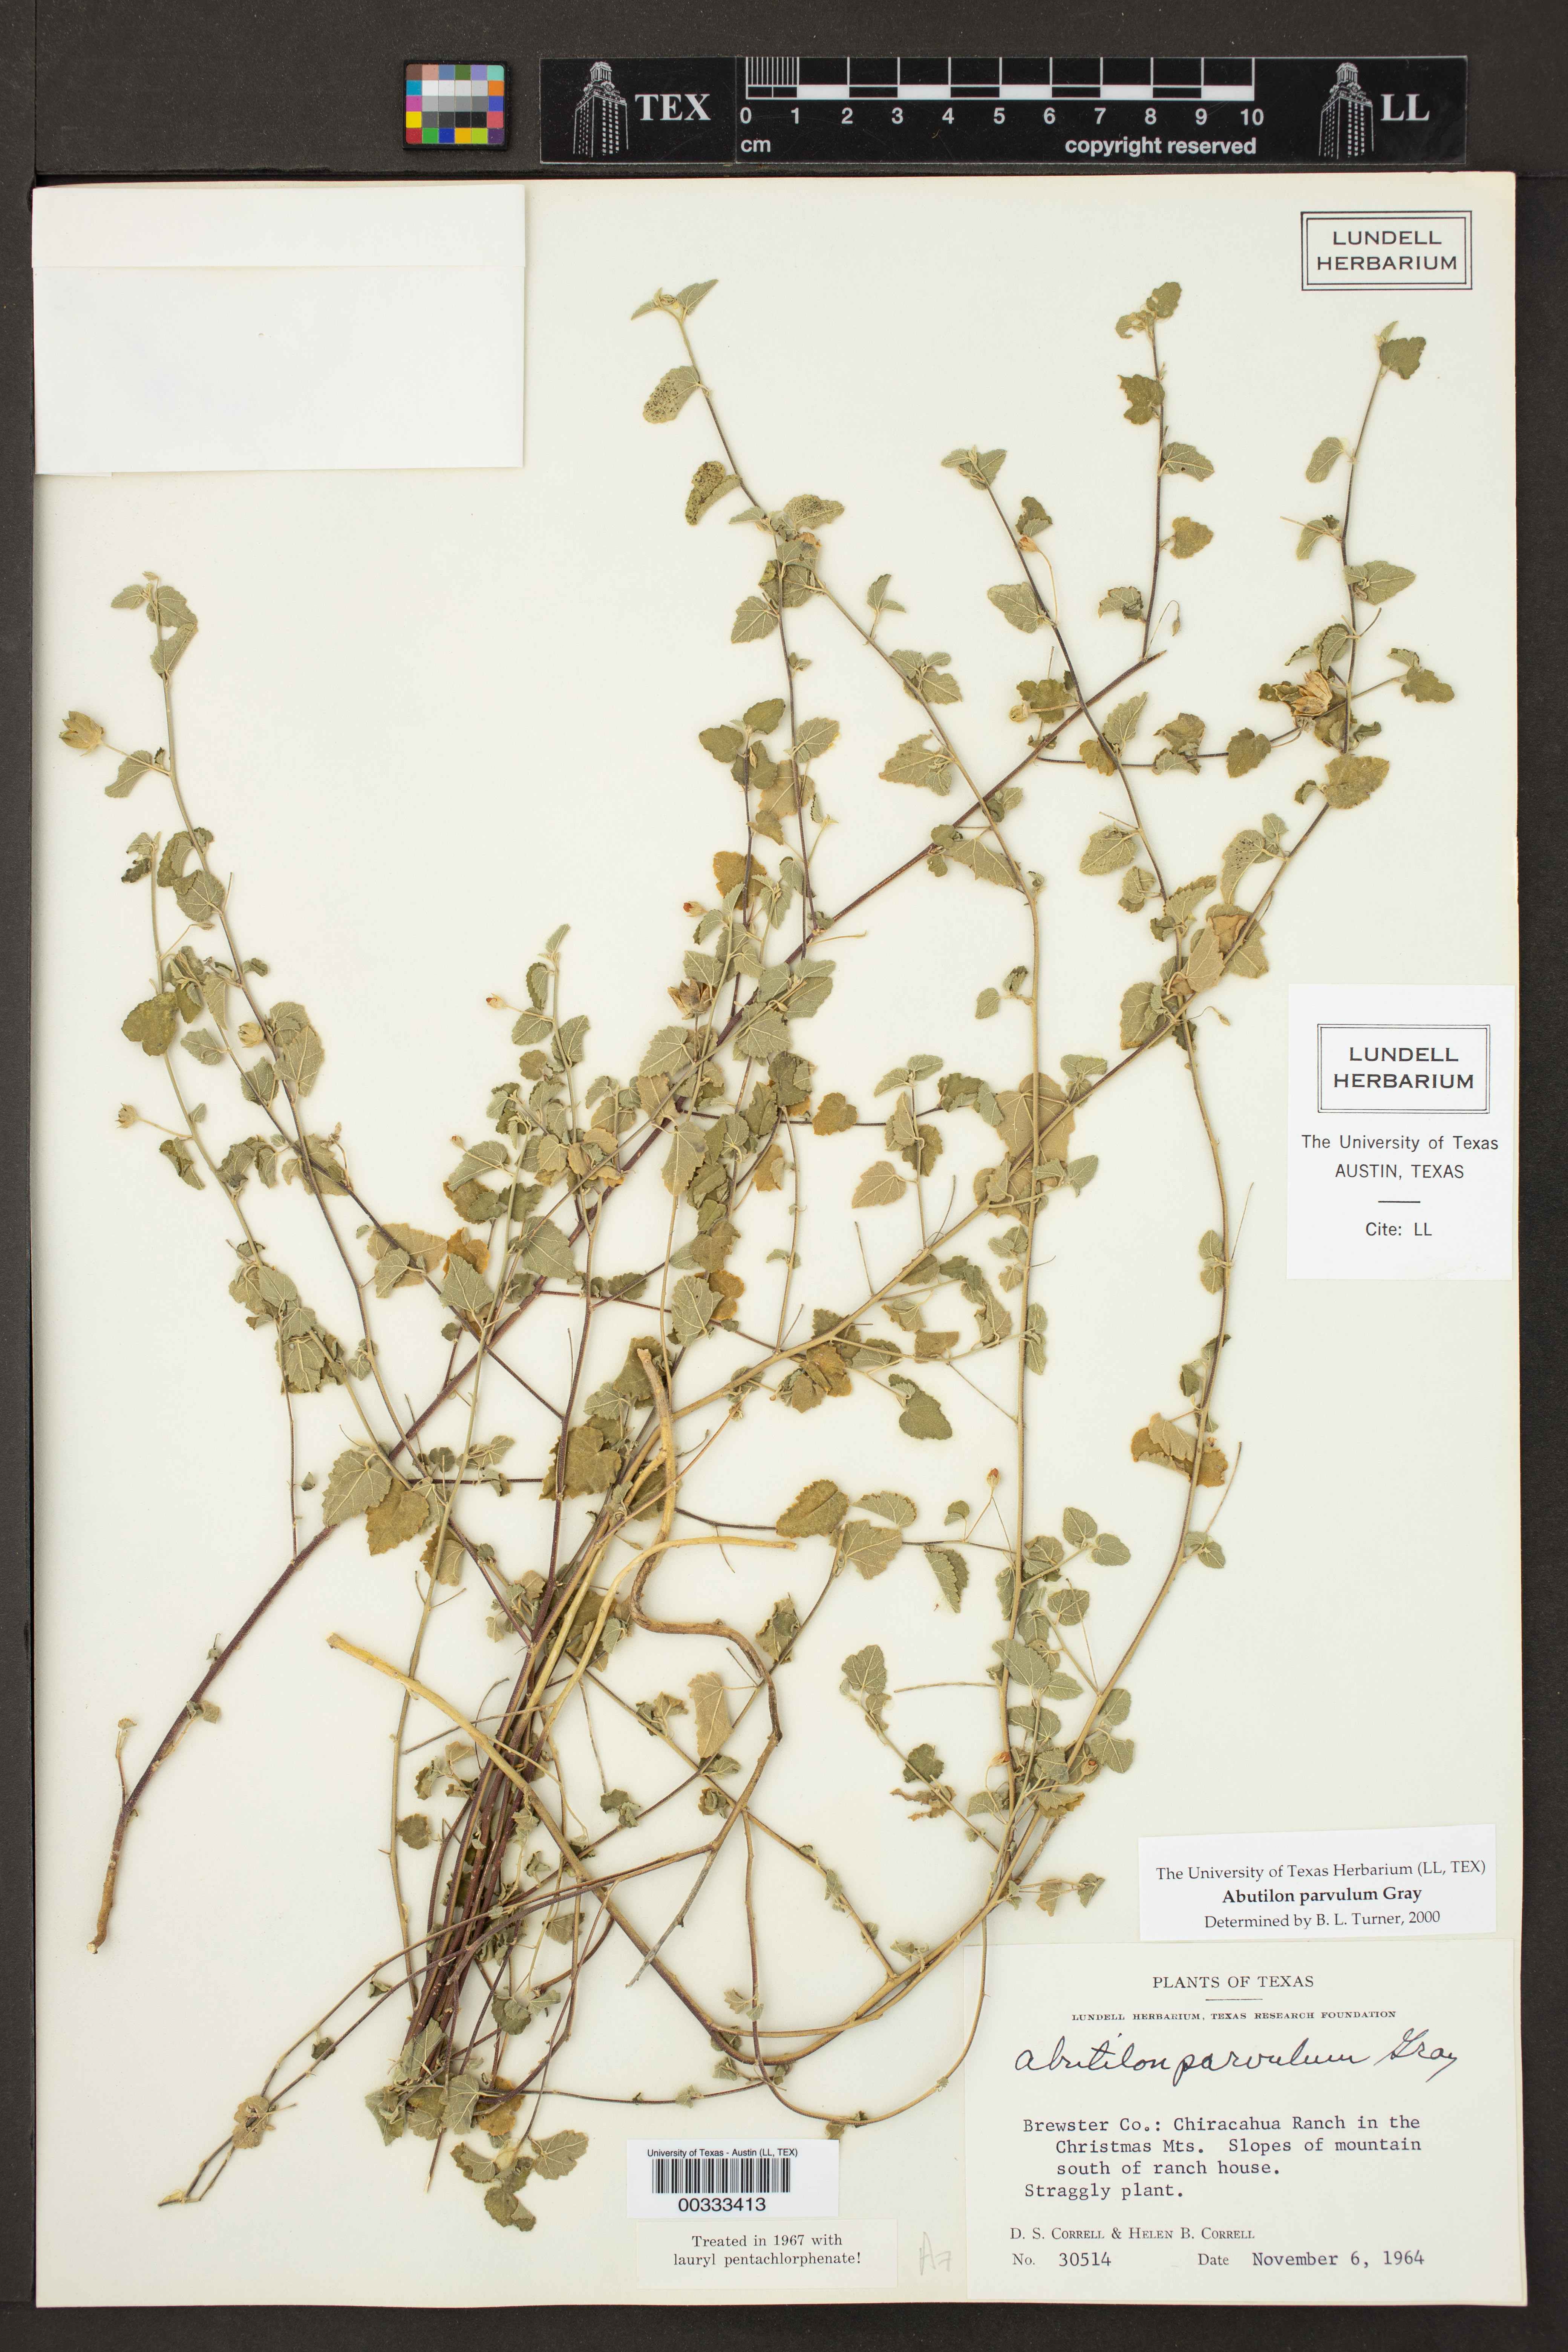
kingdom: Plantae
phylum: Tracheophyta
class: Magnoliopsida
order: Malvales
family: Malvaceae
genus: Abutilon
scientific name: Abutilon parvulum
